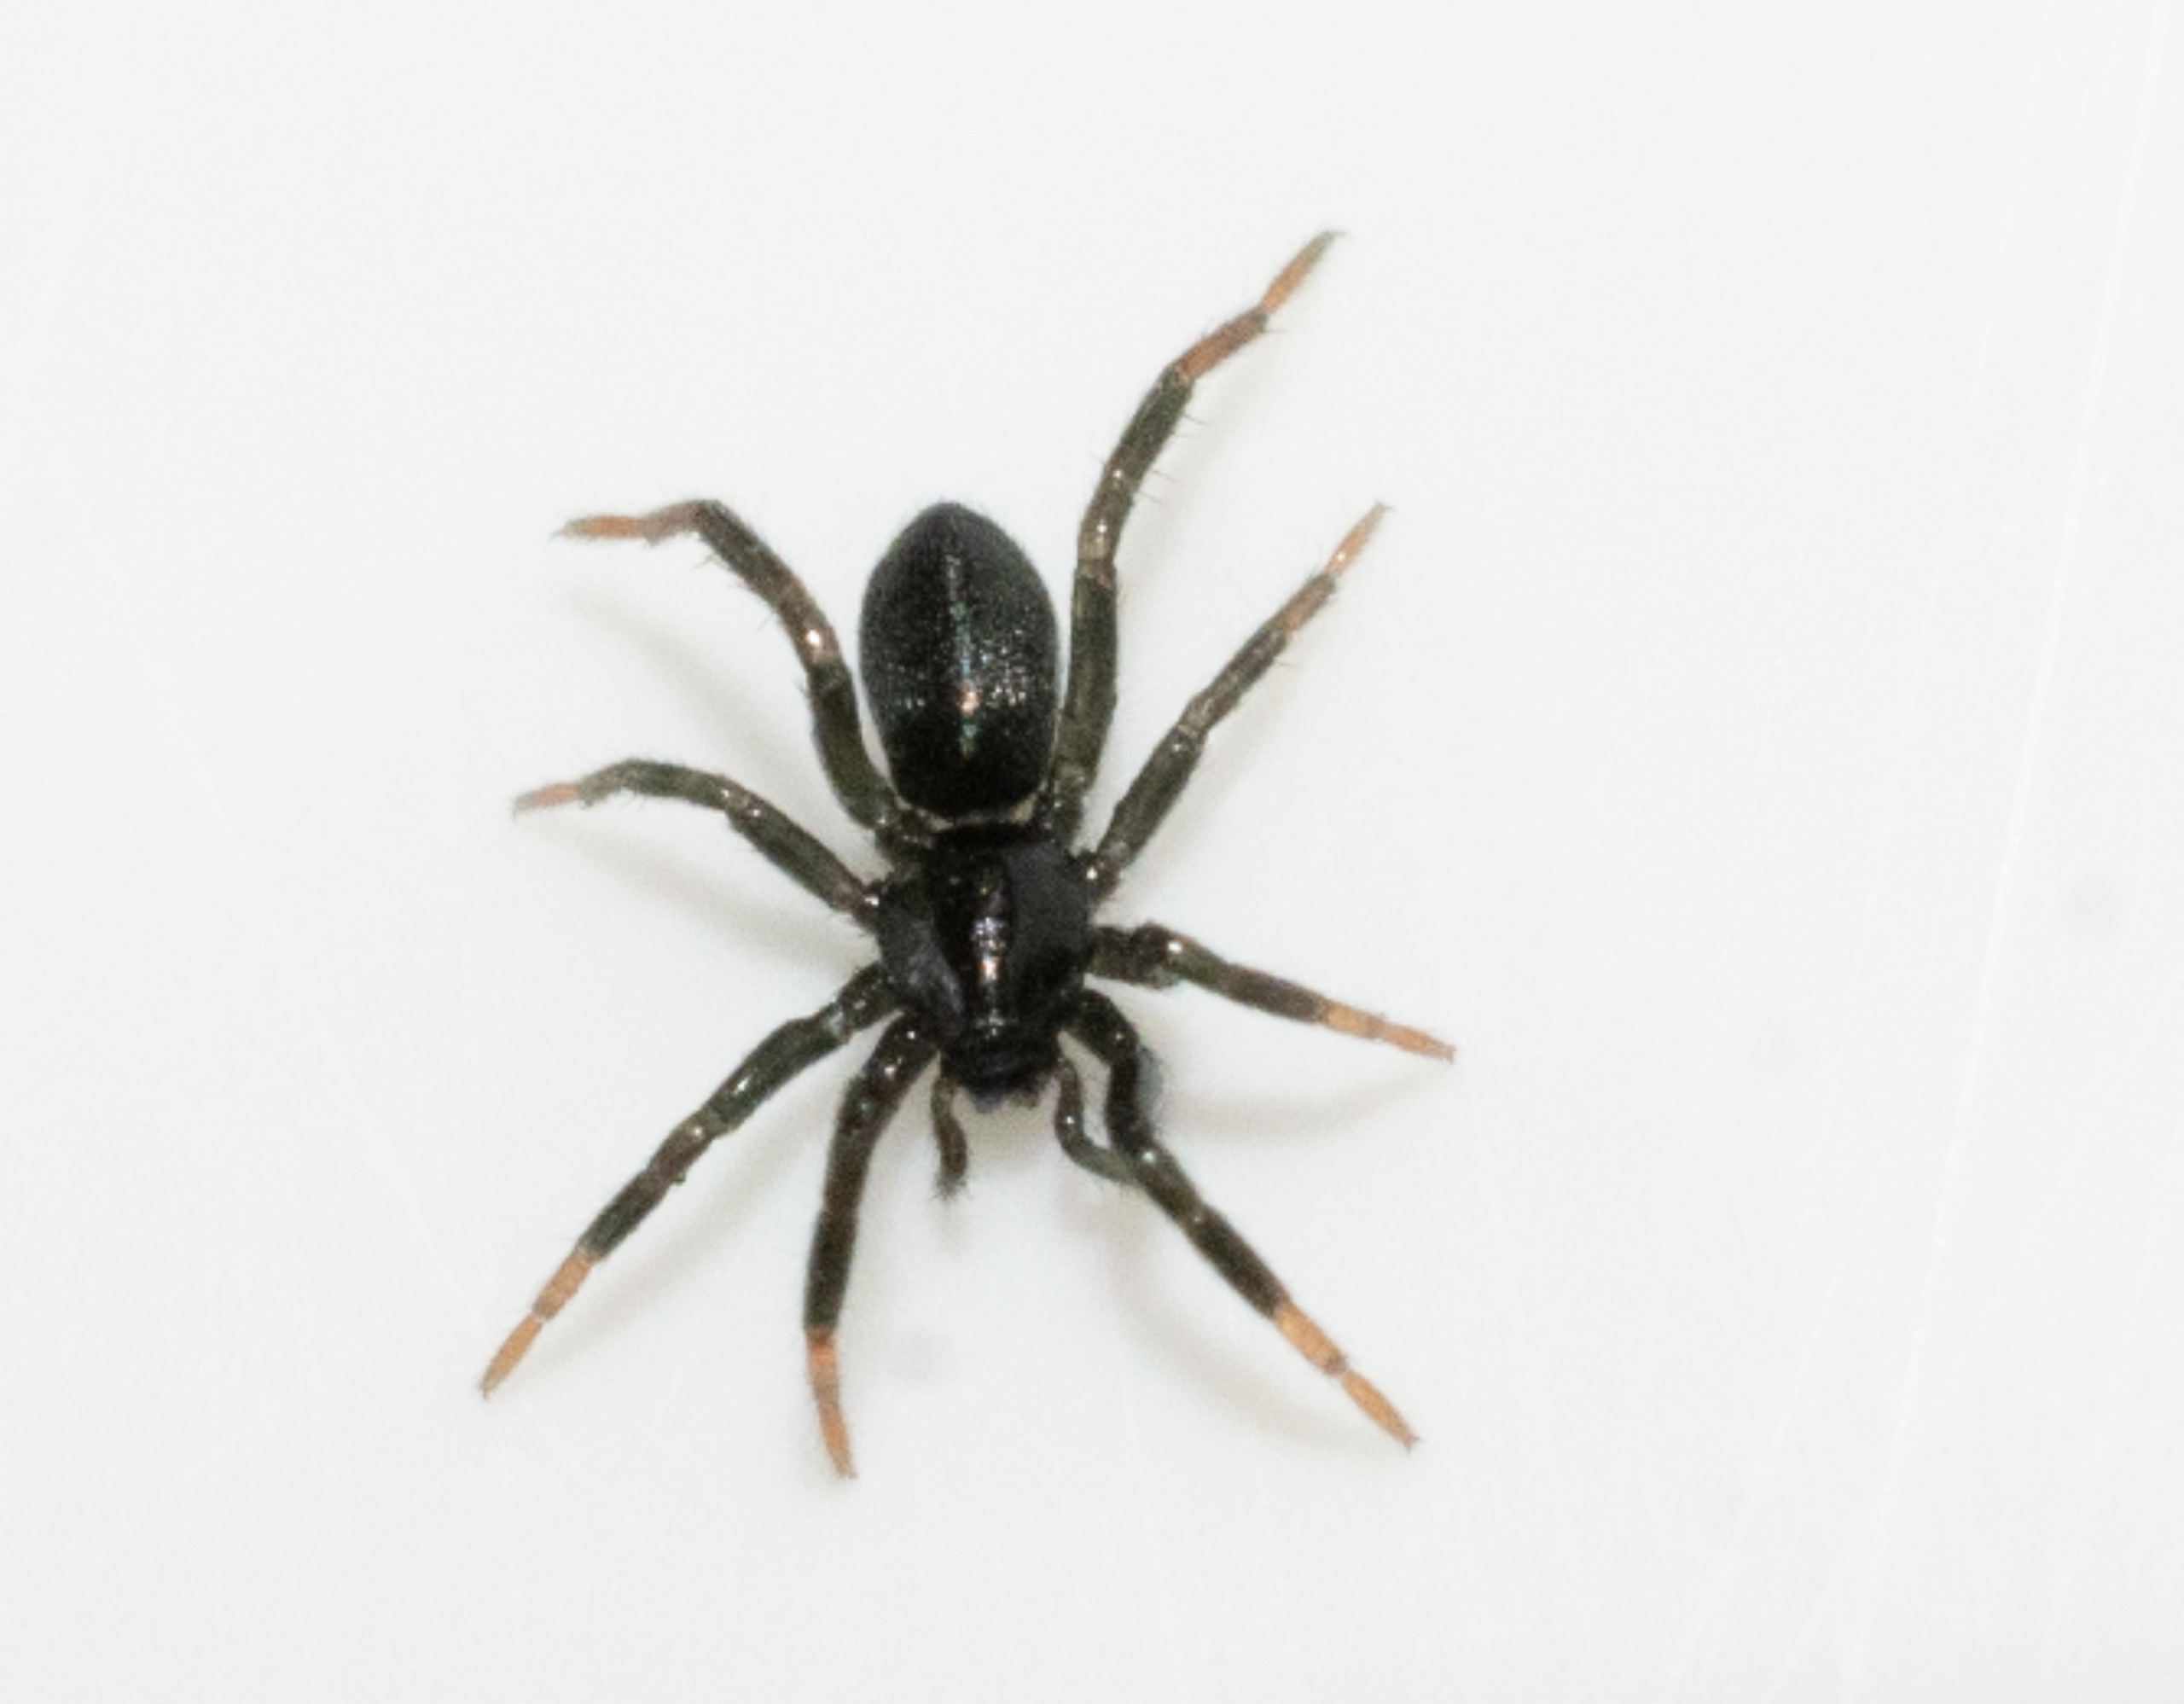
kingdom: Animalia
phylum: Arthropoda
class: Arachnida
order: Araneae
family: Gnaphosidae
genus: Drassyllus
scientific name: Drassyllus
